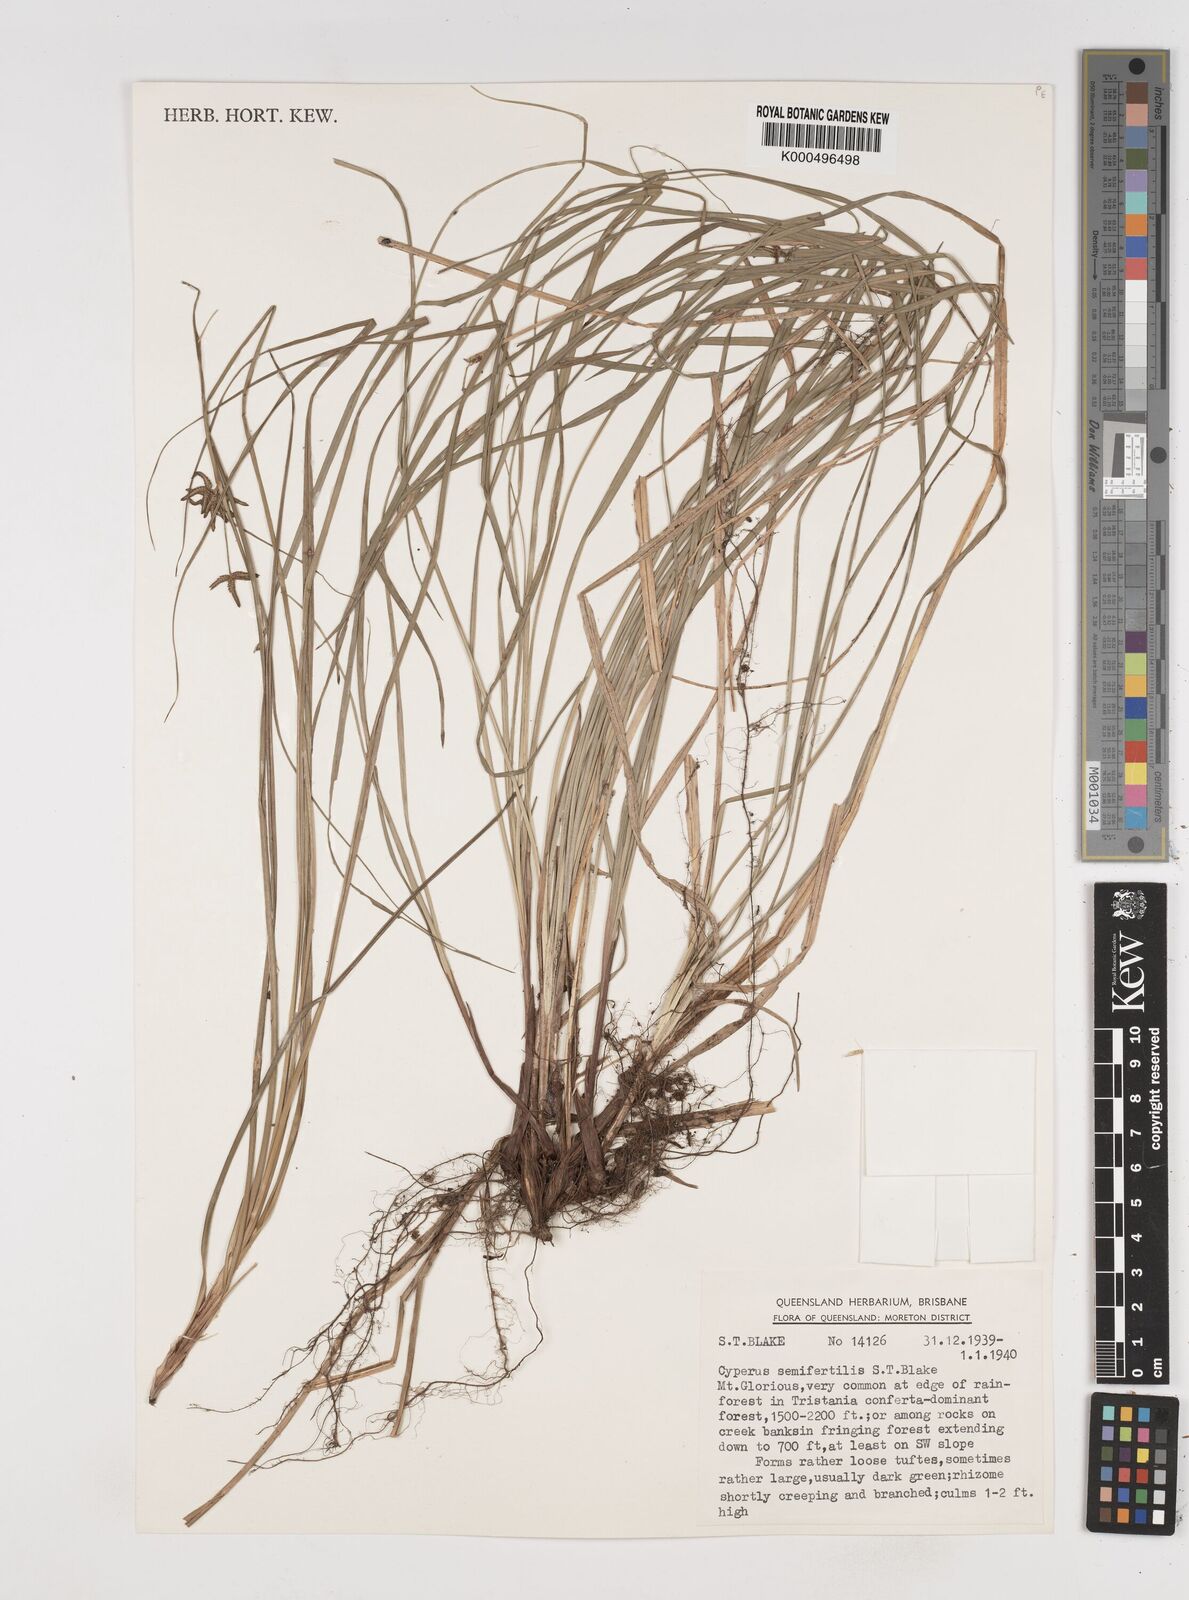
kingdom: Plantae
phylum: Tracheophyta
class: Liliopsida
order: Poales
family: Cyperaceae
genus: Cyperus
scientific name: Cyperus semifertilis
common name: Missionary nutgrass
